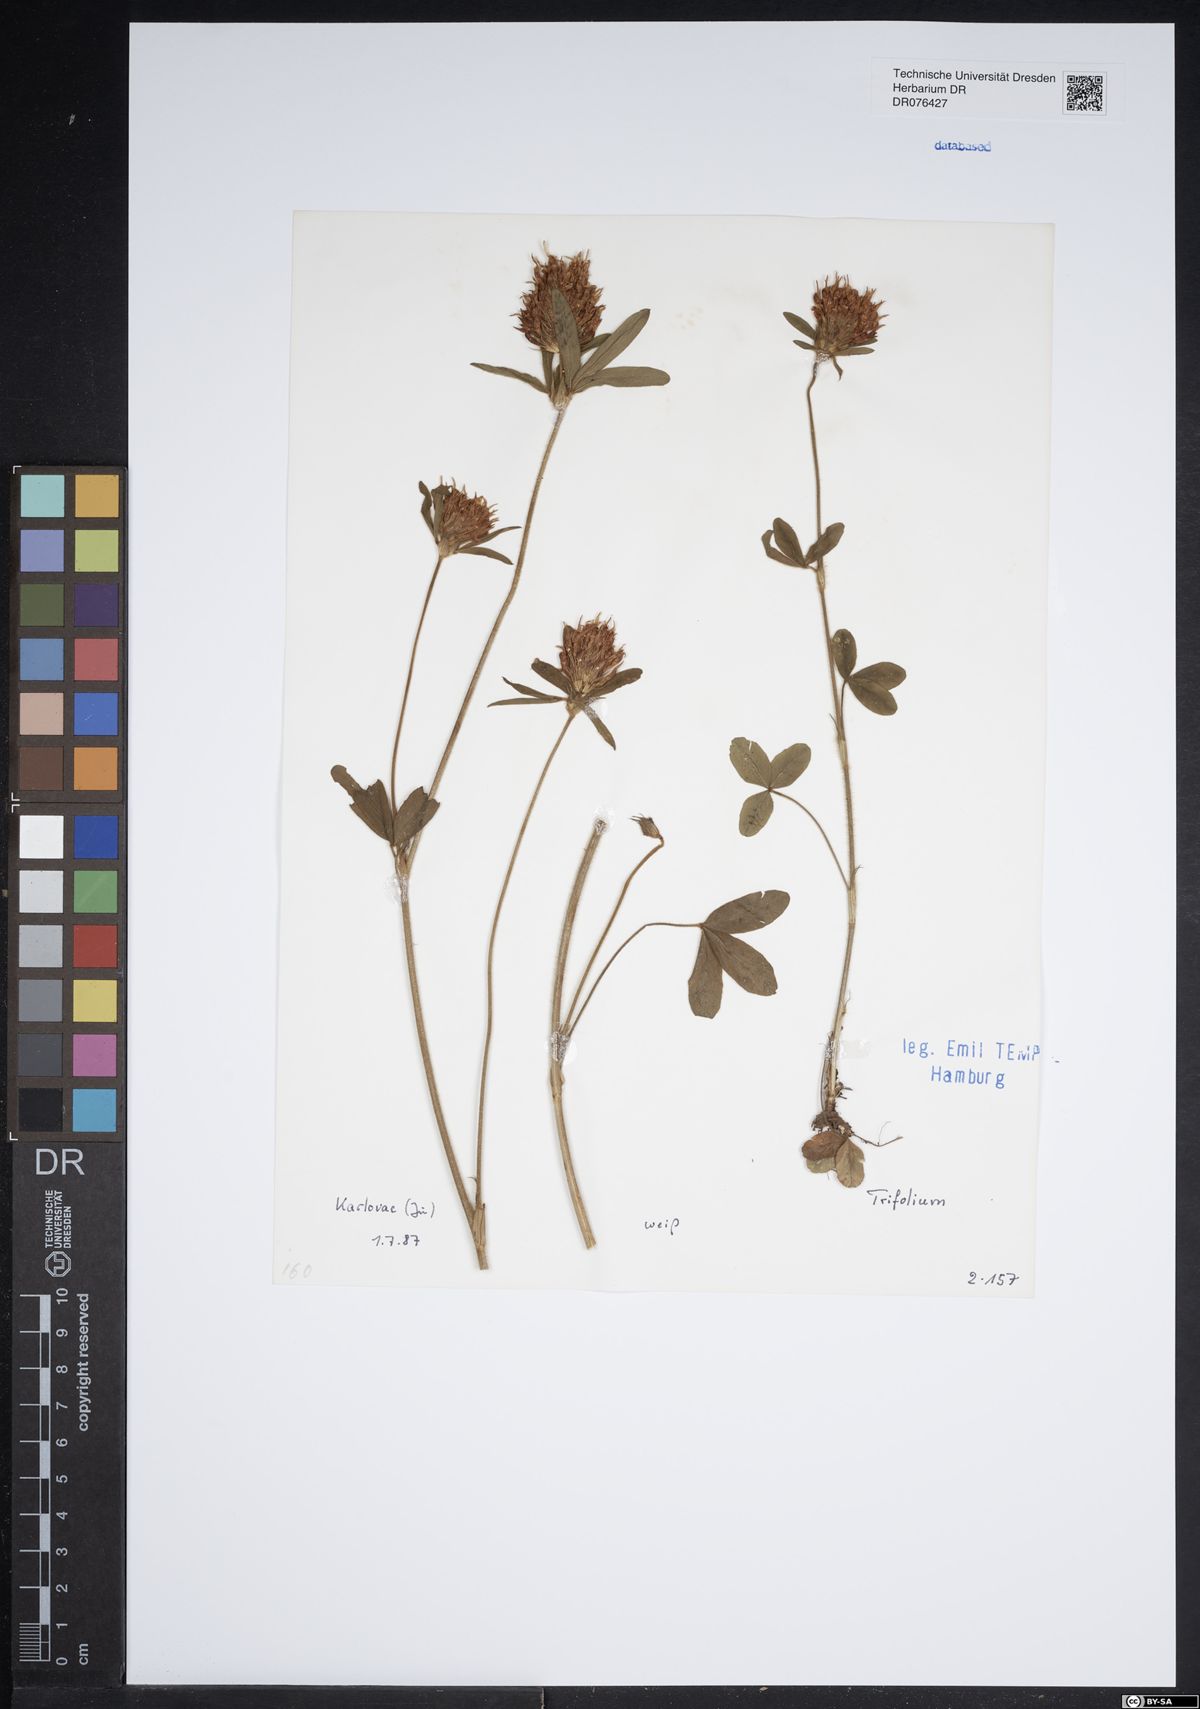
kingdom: Plantae
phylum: Tracheophyta
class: Magnoliopsida
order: Fabales
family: Fabaceae
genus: Trifolium
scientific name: Trifolium
